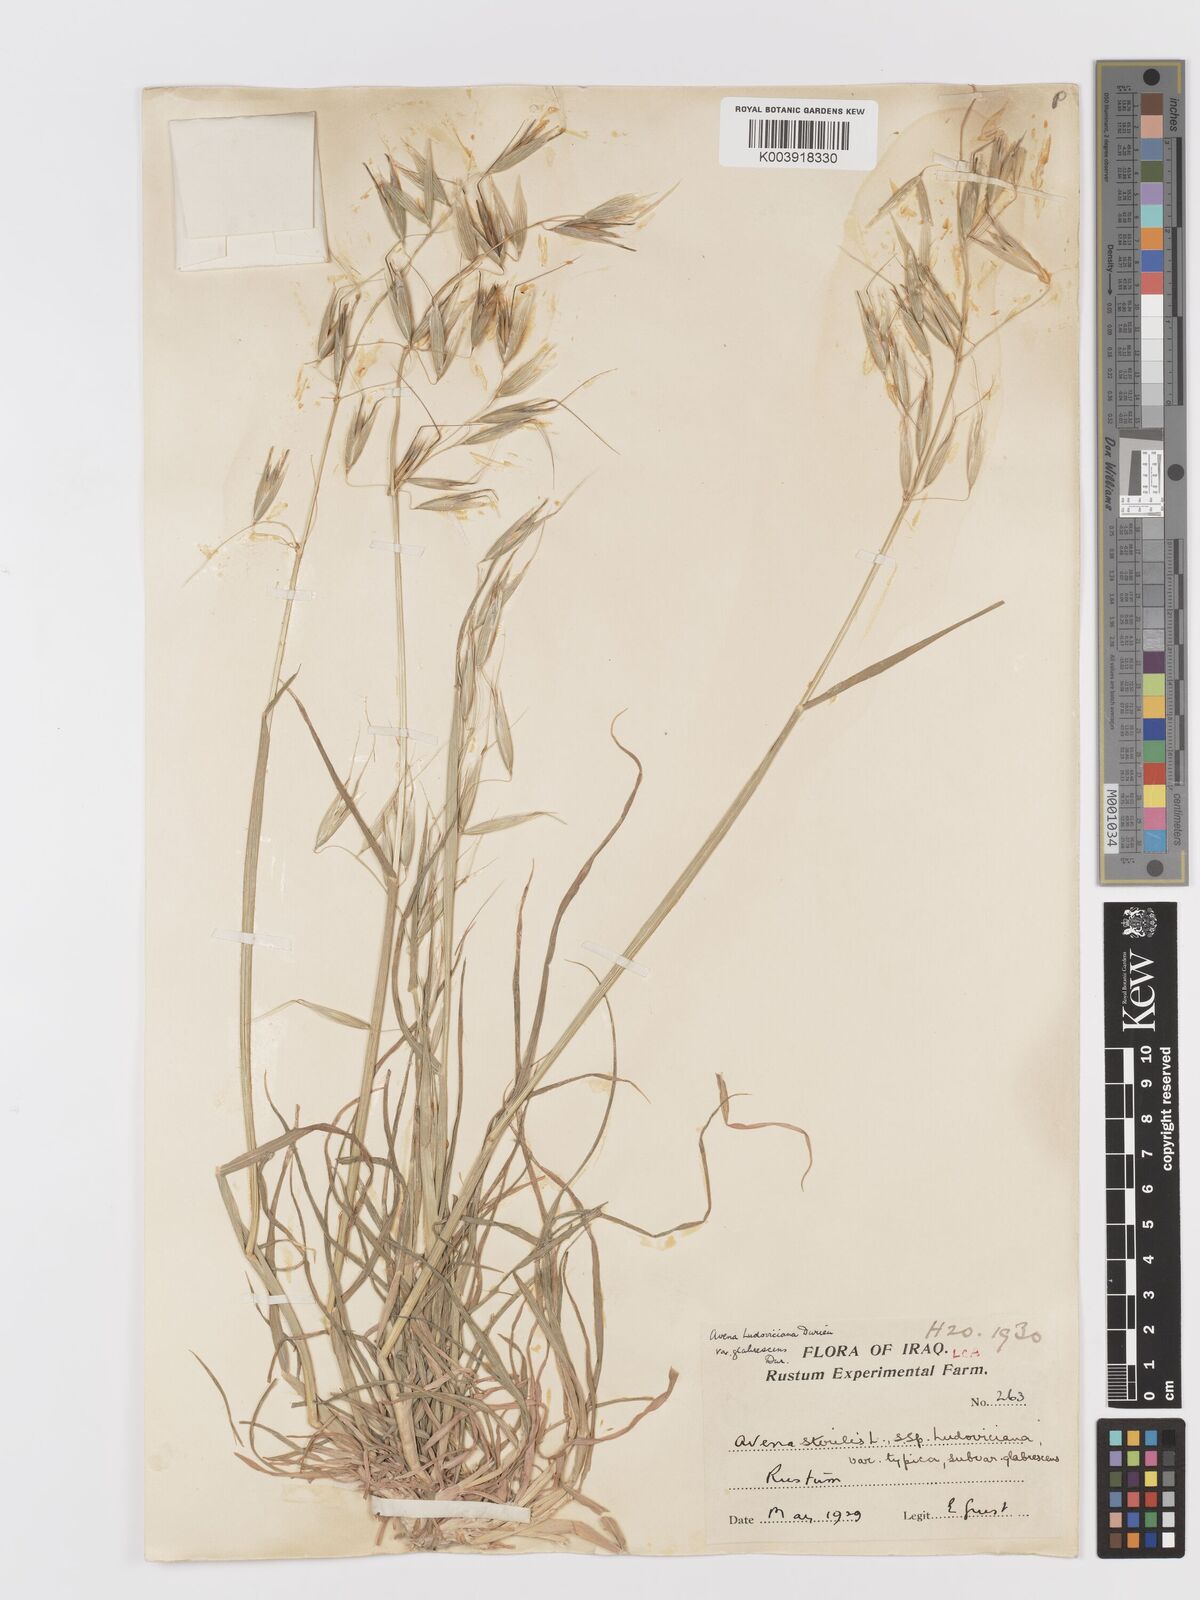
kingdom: Plantae
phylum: Tracheophyta
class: Liliopsida
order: Poales
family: Poaceae
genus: Avena
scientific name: Avena sterilis
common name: Animated oat
